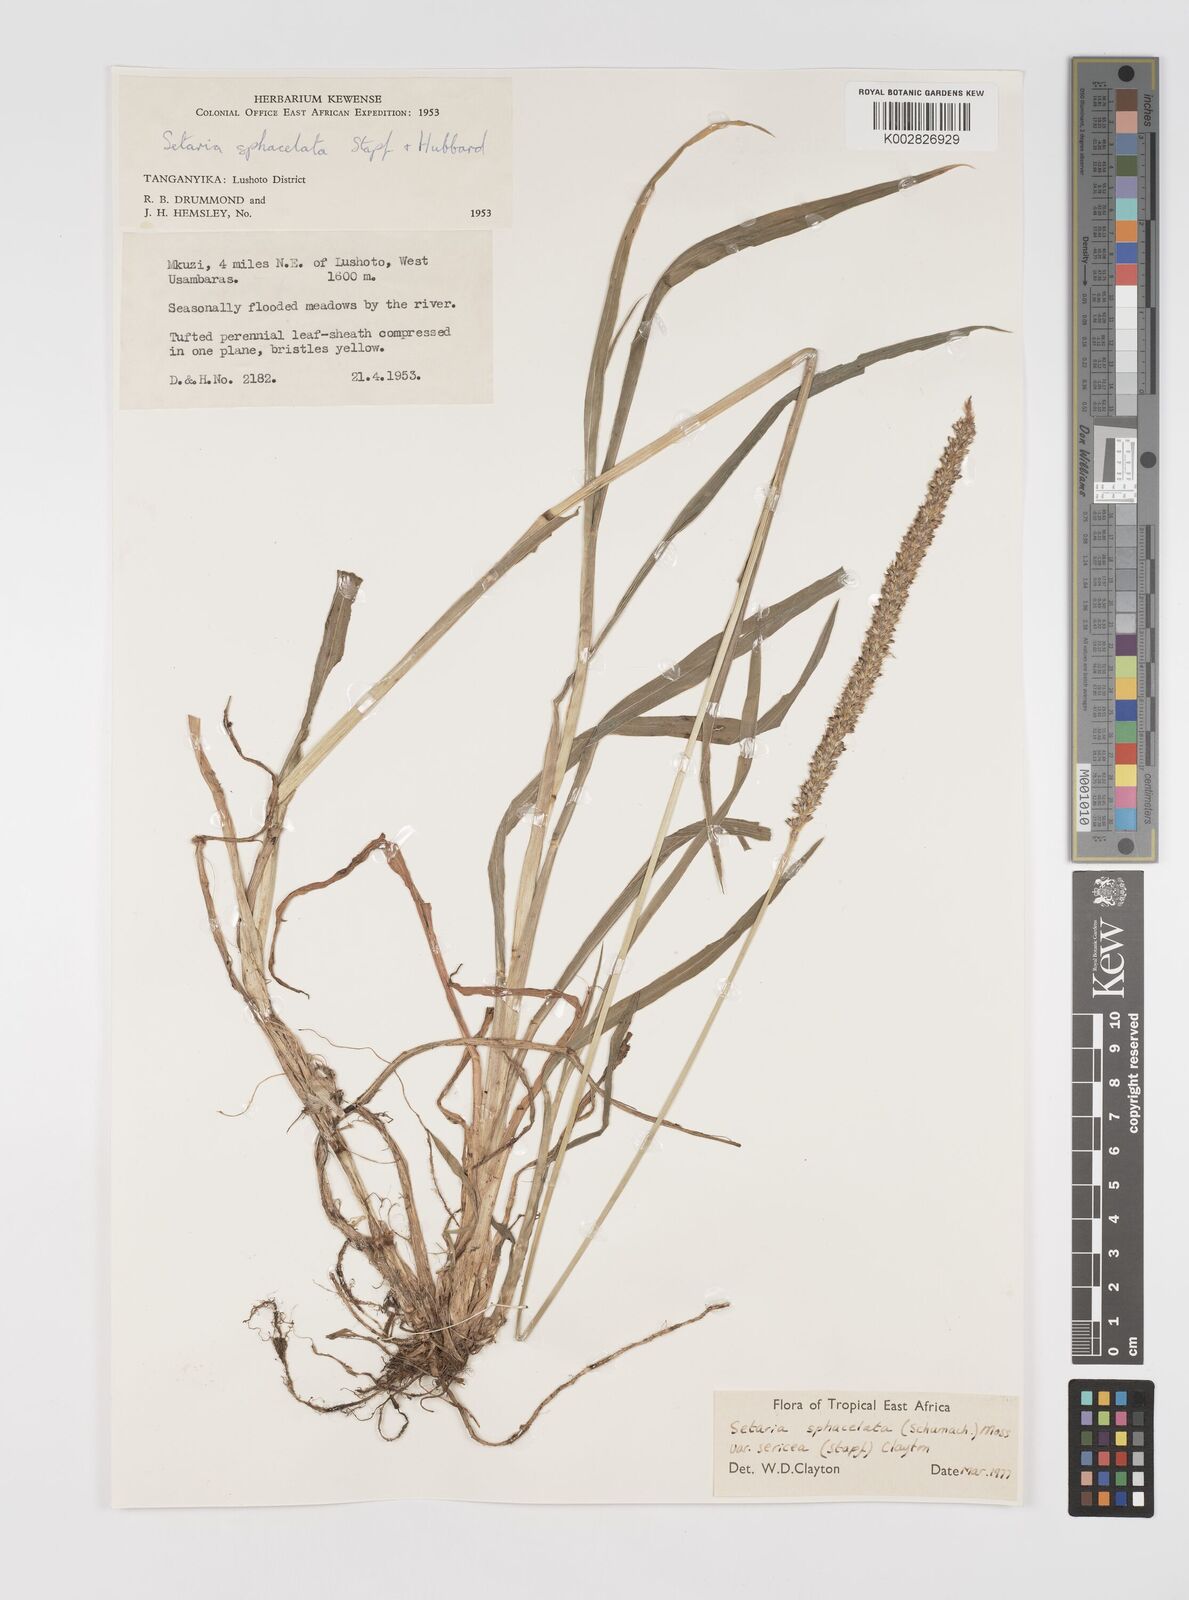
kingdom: Plantae
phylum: Tracheophyta
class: Liliopsida
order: Poales
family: Poaceae
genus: Setaria
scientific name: Setaria sphacelata
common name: African bristlegrass
